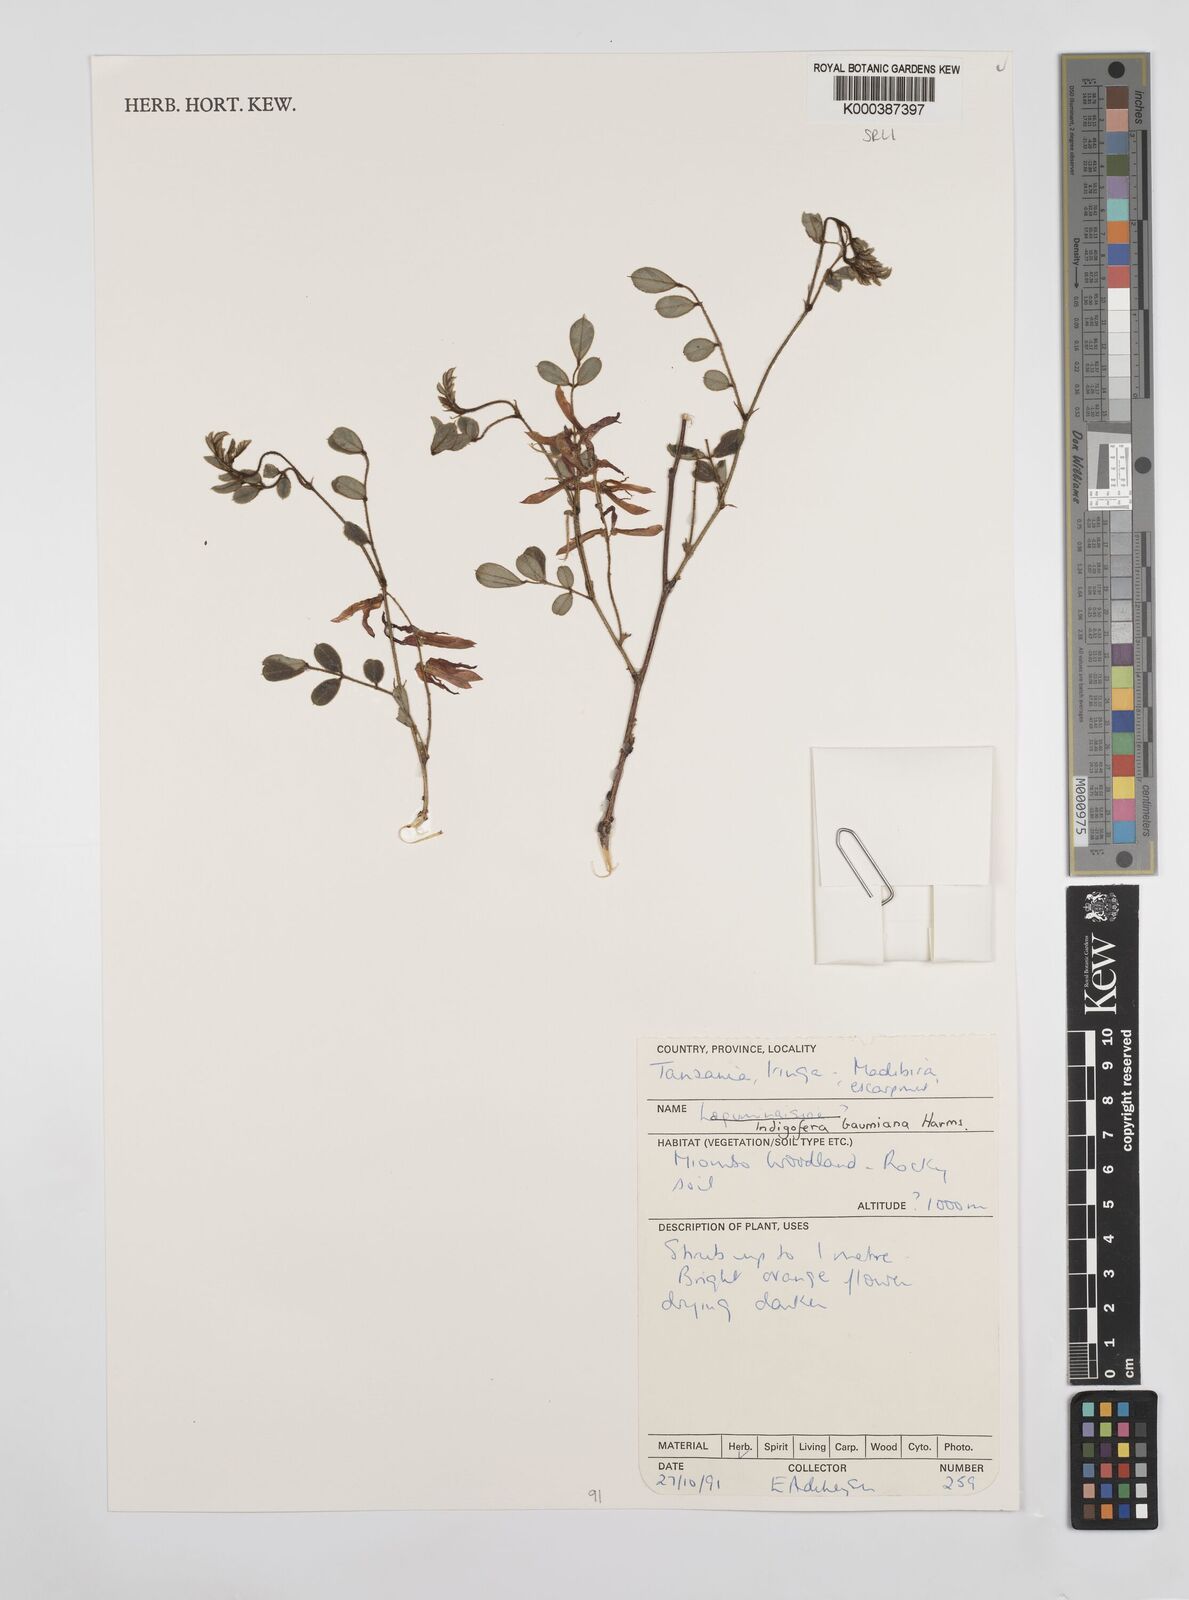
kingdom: Plantae
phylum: Tracheophyta
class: Magnoliopsida
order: Fabales
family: Fabaceae
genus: Indigofera
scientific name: Indigofera baumiana
